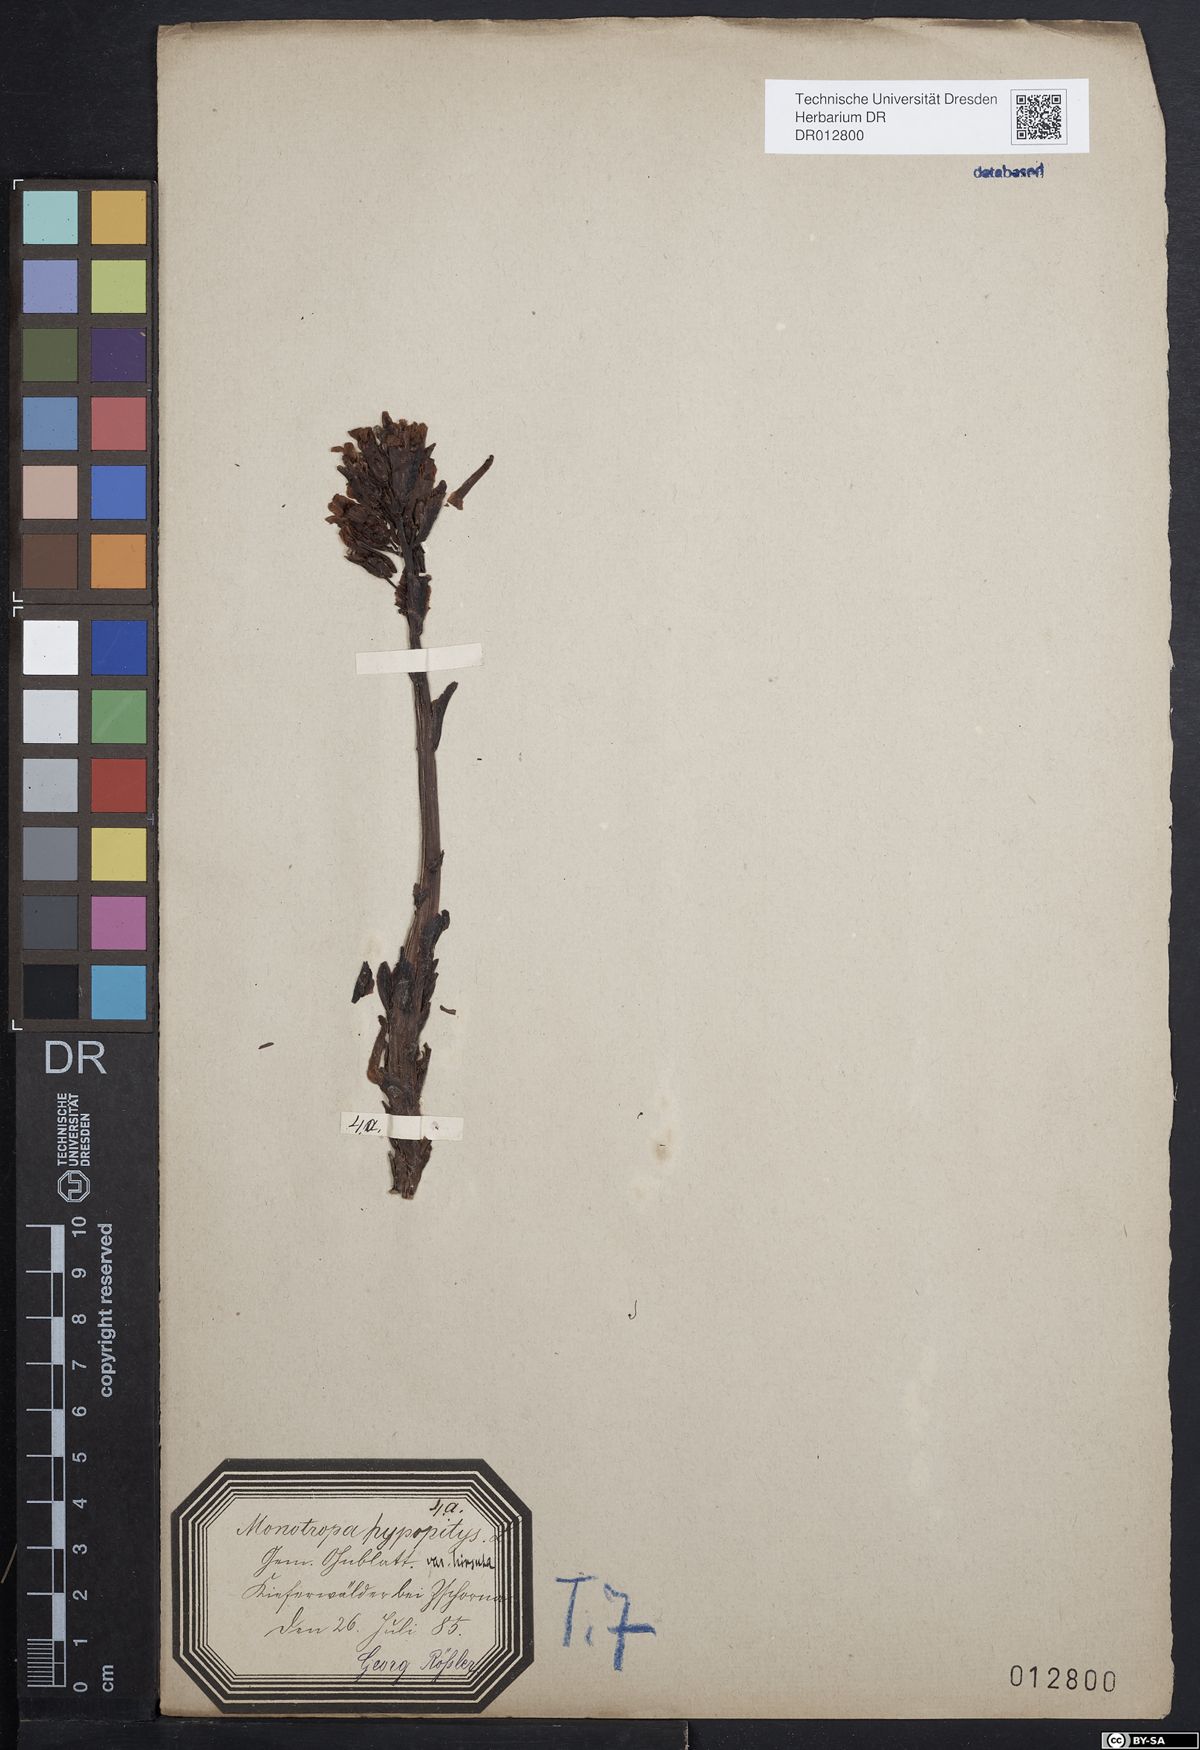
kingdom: Plantae
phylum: Tracheophyta
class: Magnoliopsida
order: Ericales
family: Ericaceae
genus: Hypopitys
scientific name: Hypopitys monotropa
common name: Yellow bird's-nest
